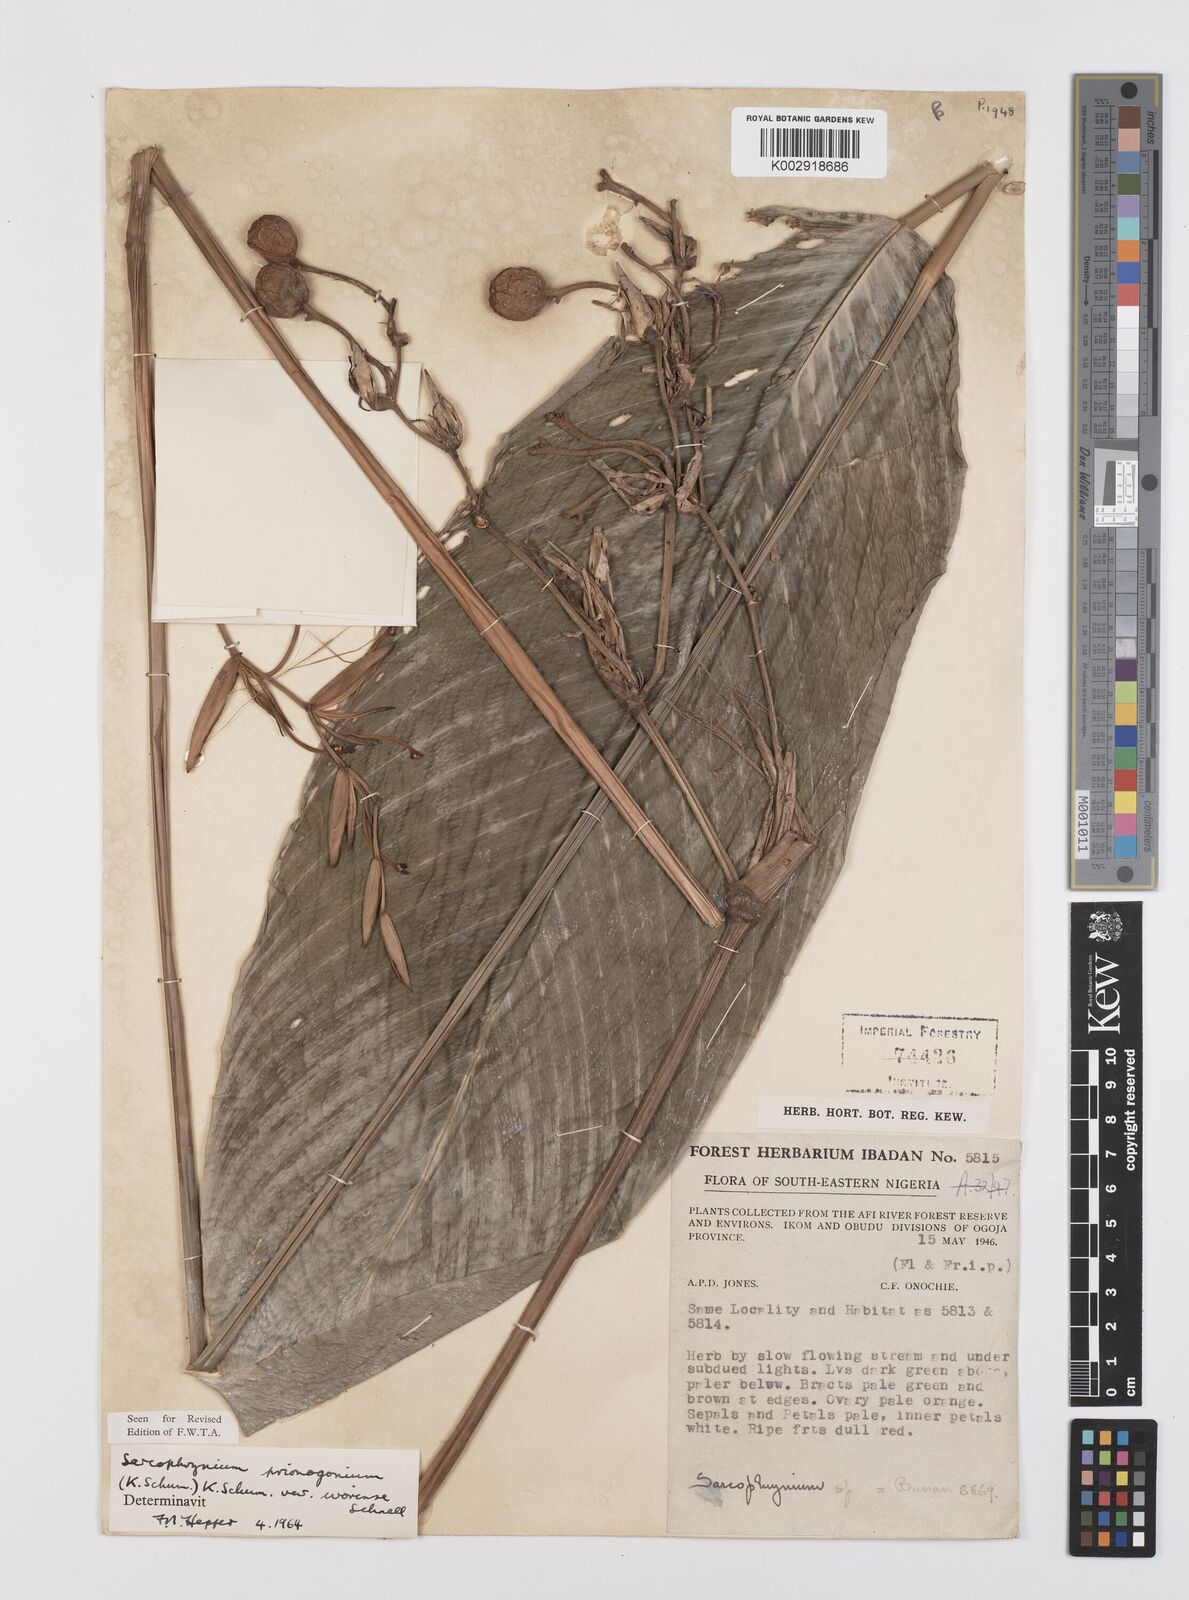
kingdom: Plantae
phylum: Tracheophyta
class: Liliopsida
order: Zingiberales
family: Marantaceae
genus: Sarcophrynium
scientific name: Sarcophrynium prionogonium
